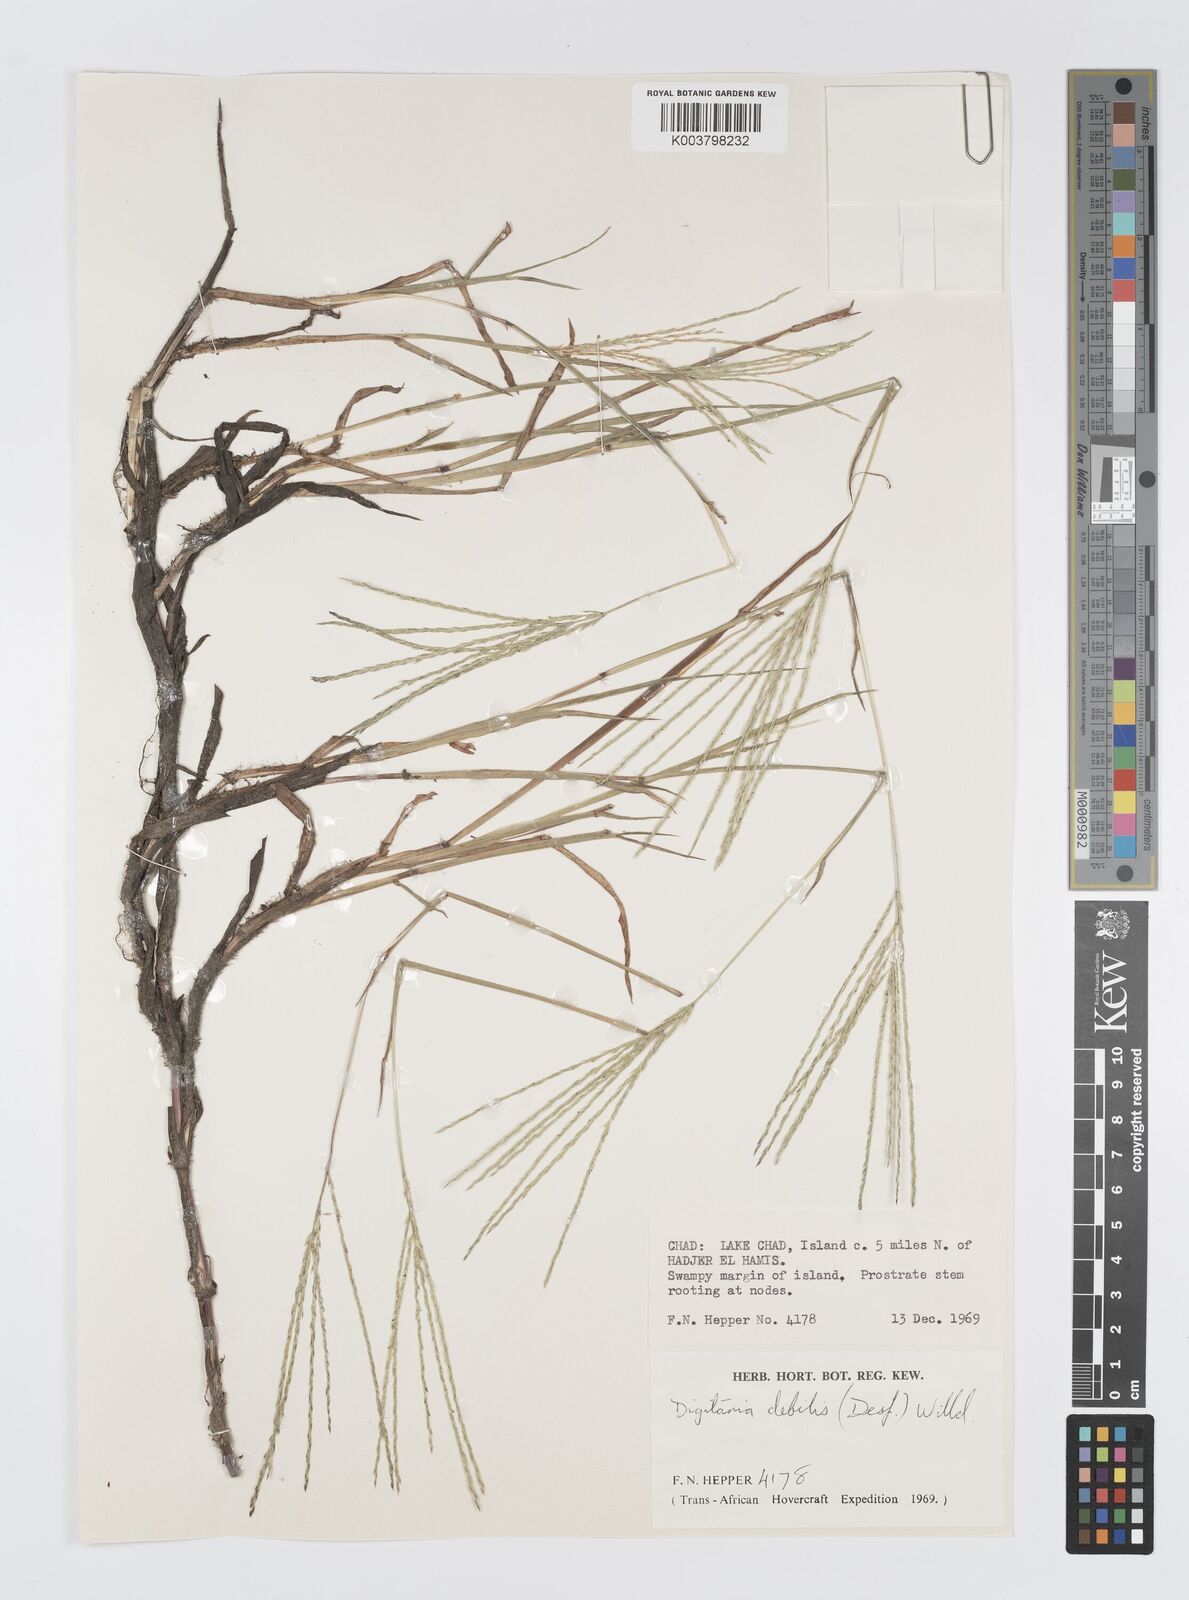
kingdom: Plantae
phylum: Tracheophyta
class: Liliopsida
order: Poales
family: Poaceae
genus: Digitaria
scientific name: Digitaria debilis
